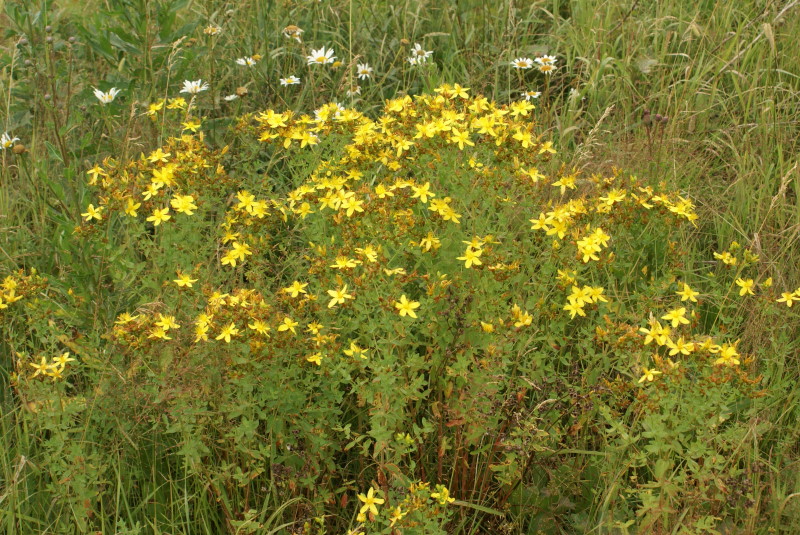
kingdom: Plantae
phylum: Tracheophyta
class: Magnoliopsida
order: Malpighiales
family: Hypericaceae
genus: Hypericum
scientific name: Hypericum perforatum
